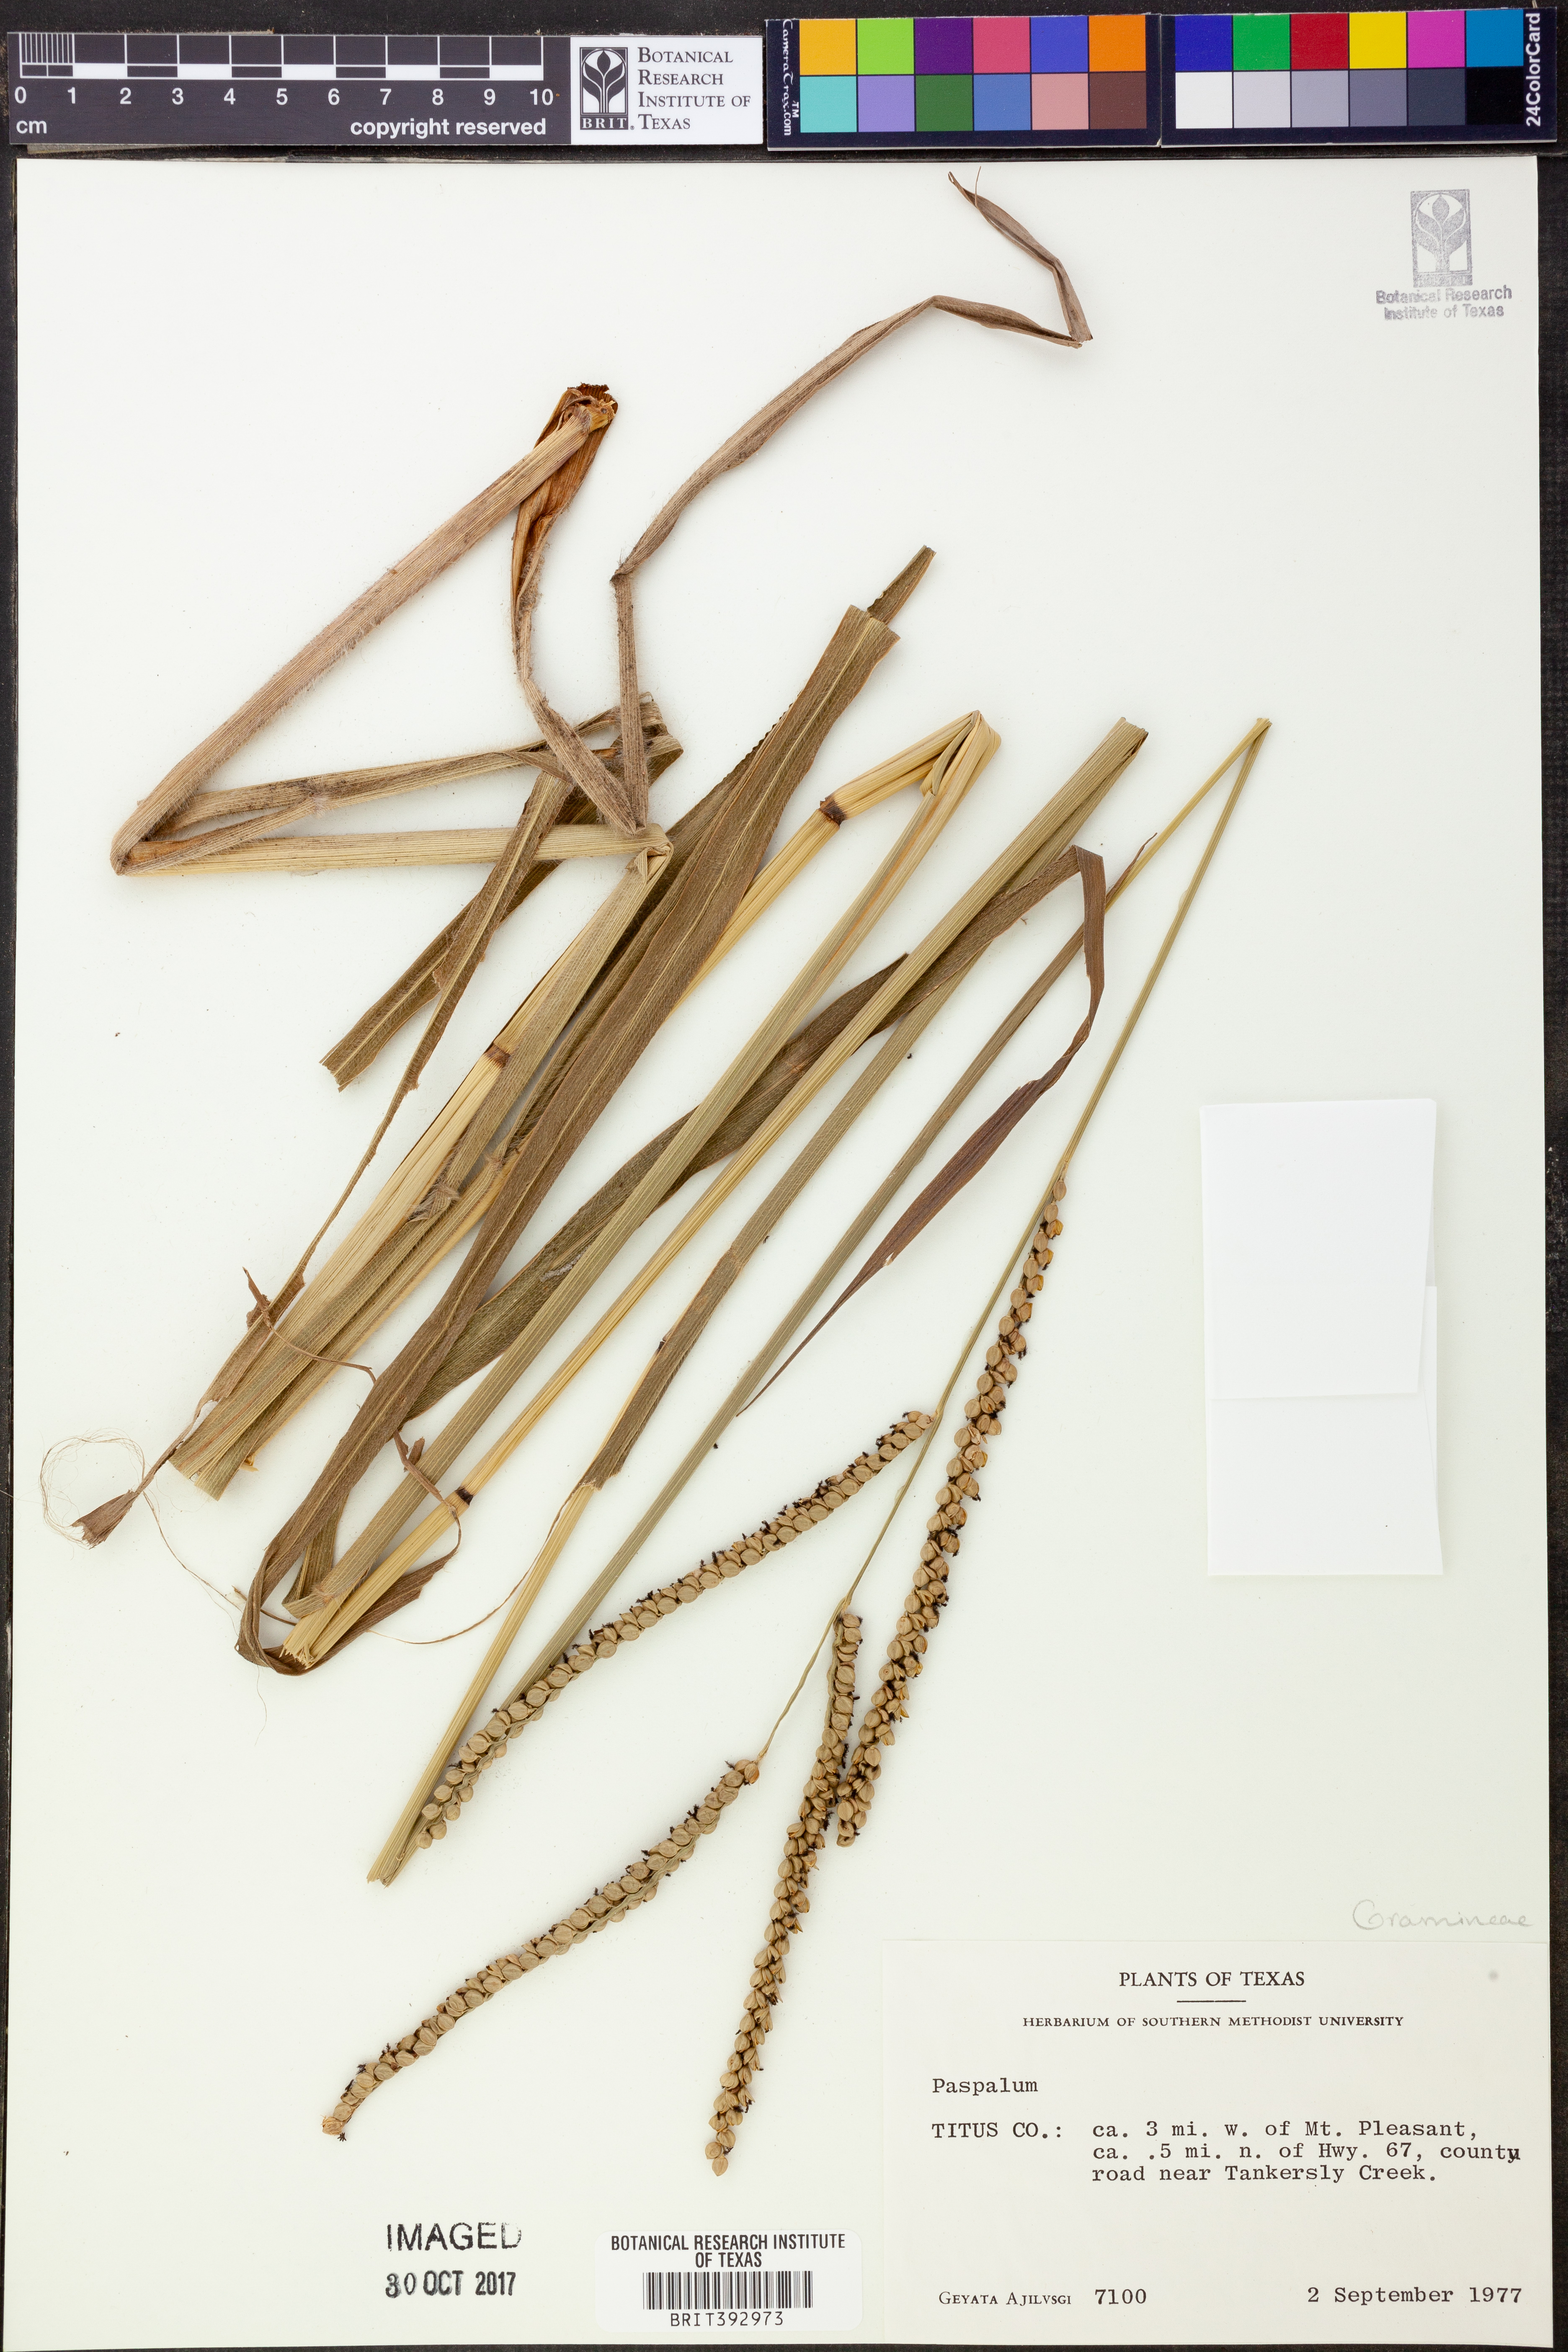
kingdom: Plantae
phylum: Tracheophyta
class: Liliopsida
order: Poales
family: Poaceae
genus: Paspalum
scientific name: Paspalum
